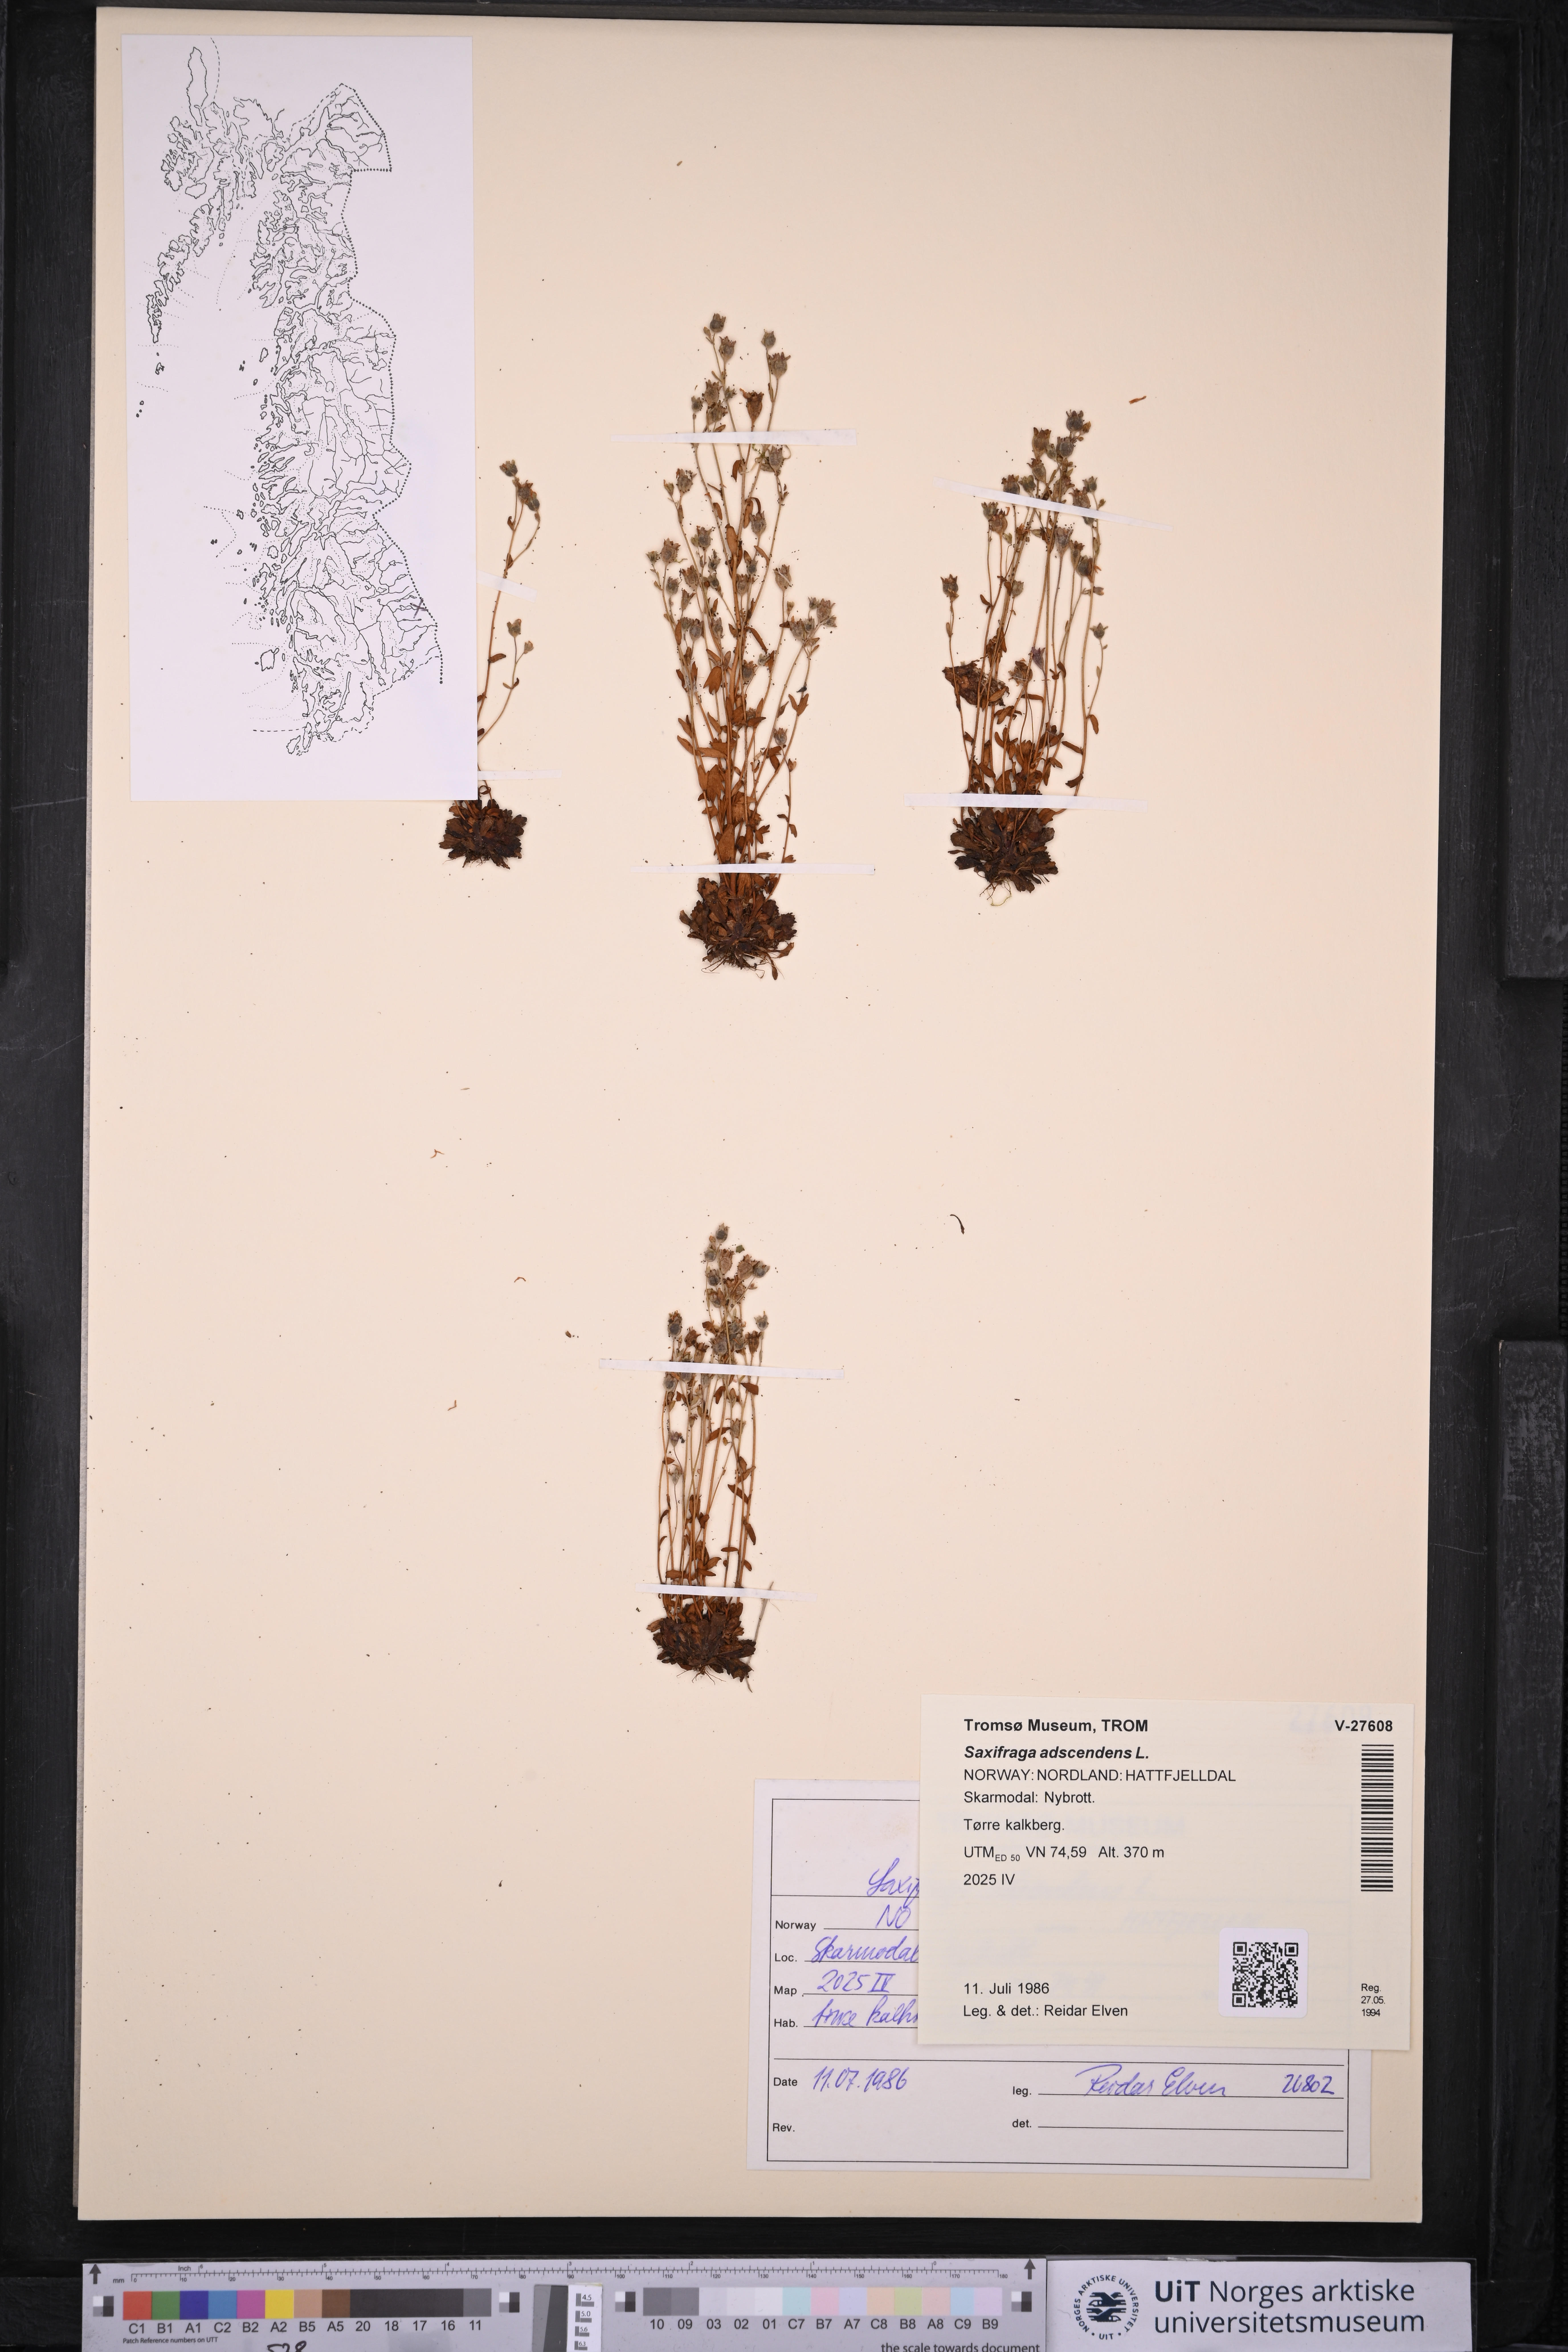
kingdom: Plantae
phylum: Tracheophyta
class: Magnoliopsida
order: Saxifragales
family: Saxifragaceae
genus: Saxifraga
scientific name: Saxifraga adscendens
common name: Ascending saxifrage
